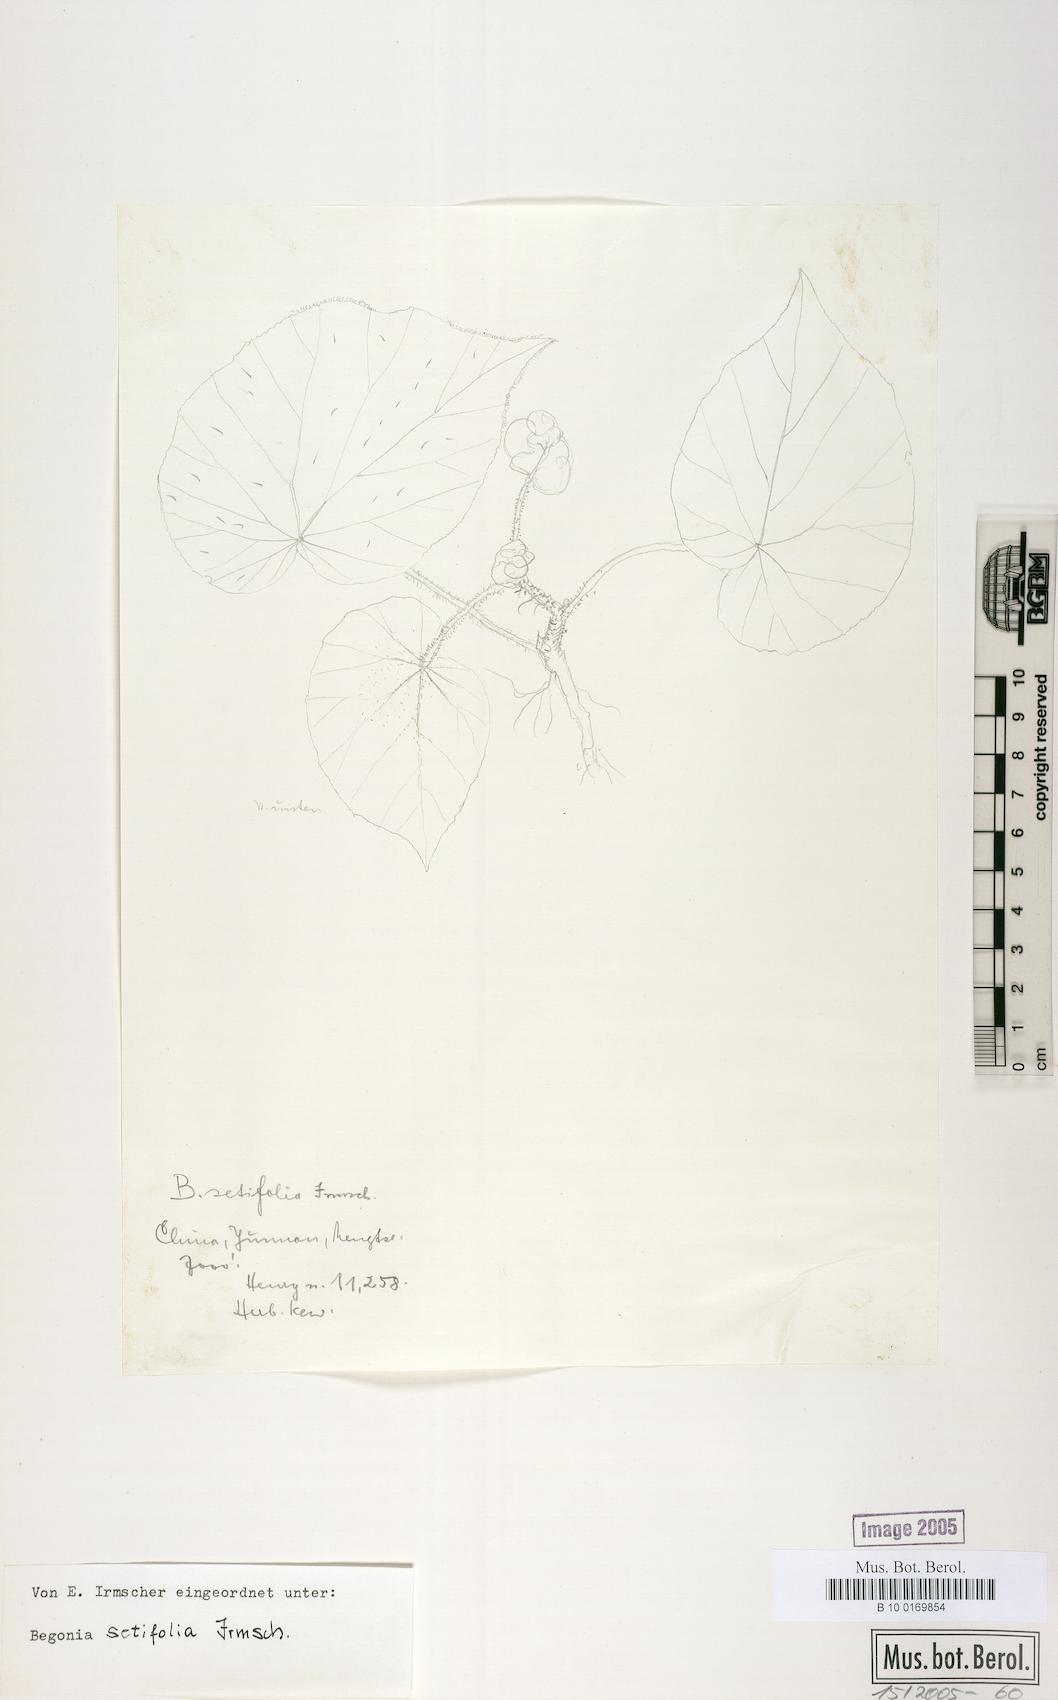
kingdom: Plantae
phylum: Tracheophyta
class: Magnoliopsida
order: Cucurbitales
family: Begoniaceae
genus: Begonia
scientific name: Begonia setifolia
